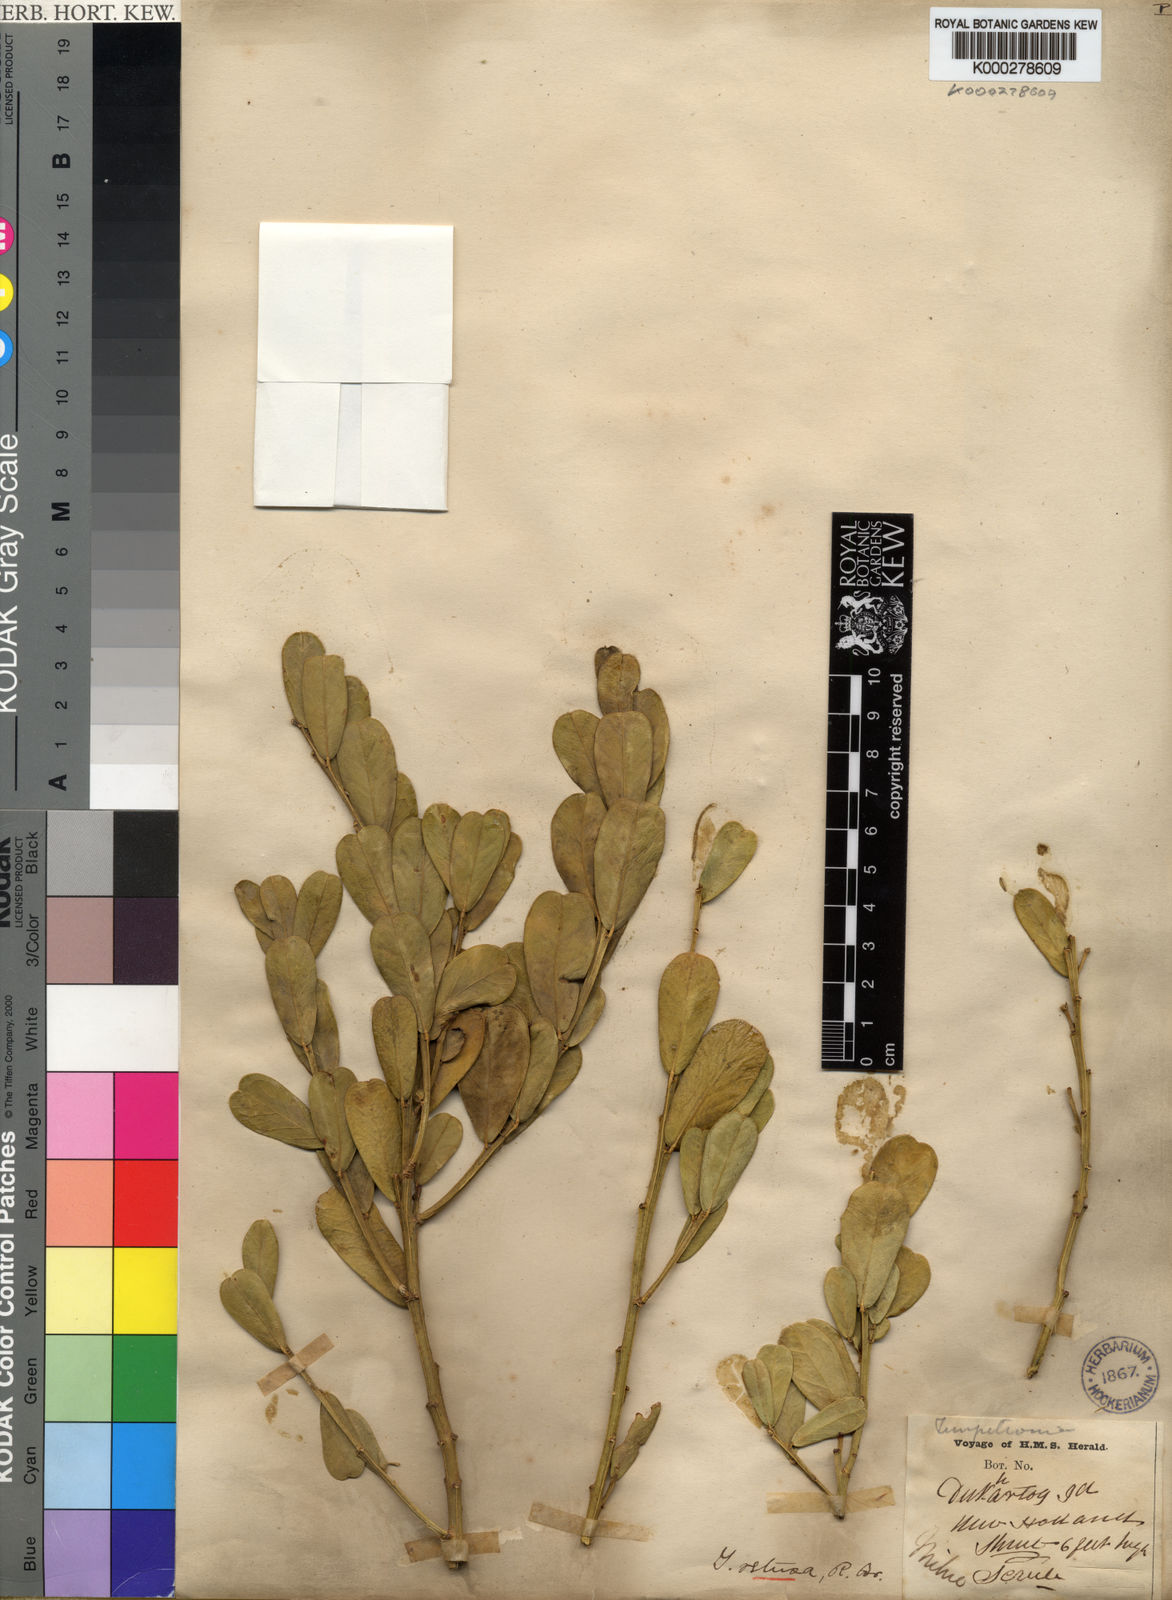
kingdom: Plantae
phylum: Tracheophyta
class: Magnoliopsida
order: Fabales
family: Fabaceae
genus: Templetonia
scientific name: Templetonia retusa
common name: Cockies'-tongue
